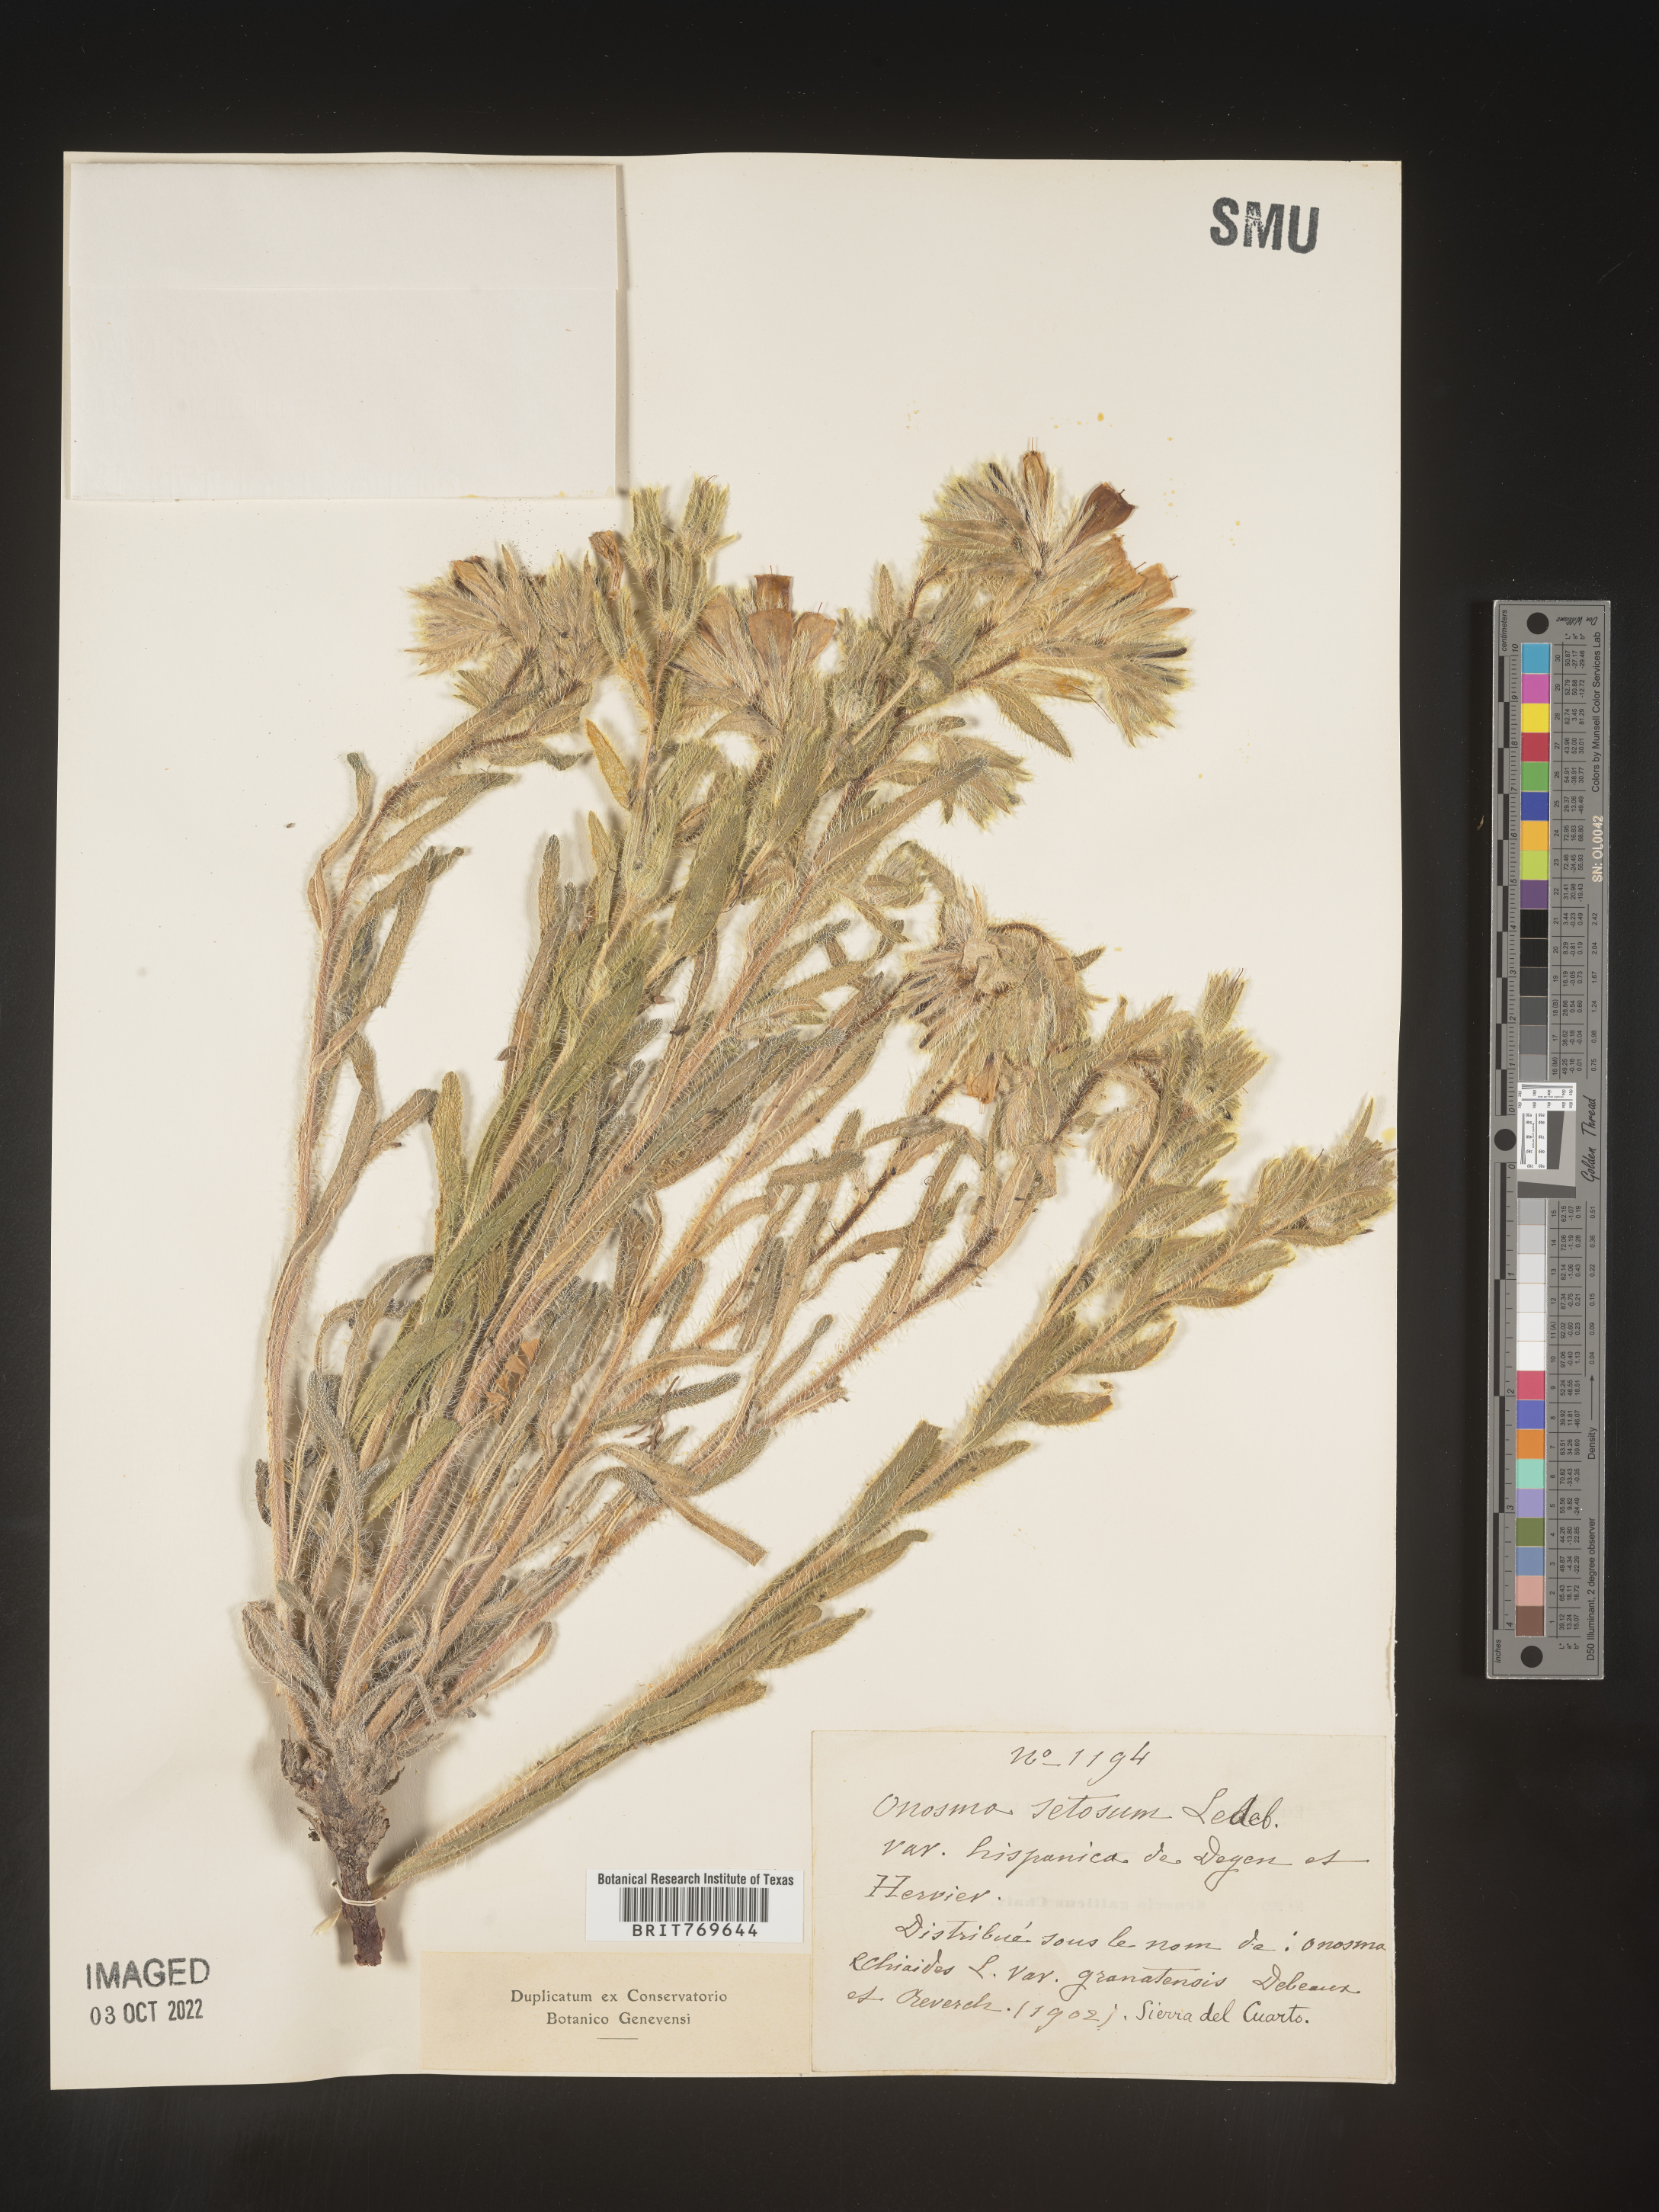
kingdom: Plantae
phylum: Tracheophyta
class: Magnoliopsida
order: Boraginales
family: Boraginaceae
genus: Onosma
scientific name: Onosma
